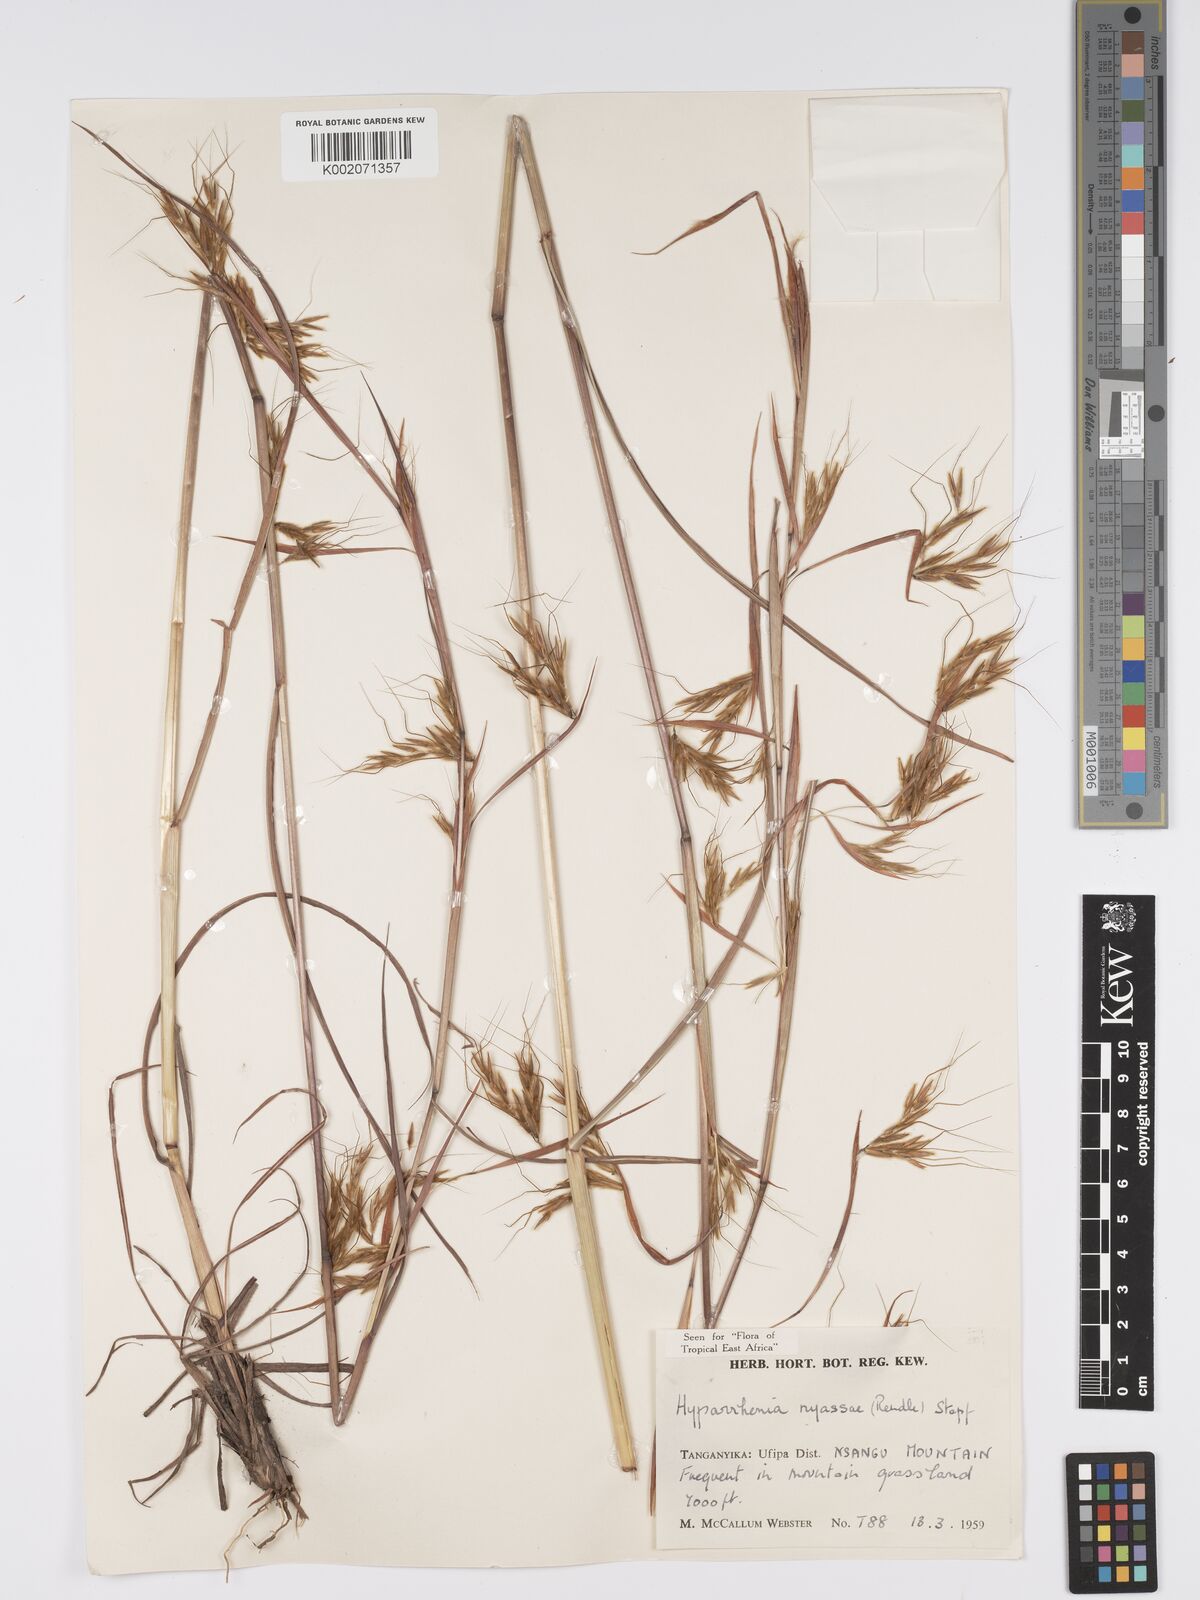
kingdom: Plantae
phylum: Tracheophyta
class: Liliopsida
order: Poales
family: Poaceae
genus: Hyparrhenia
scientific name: Hyparrhenia nyassae
